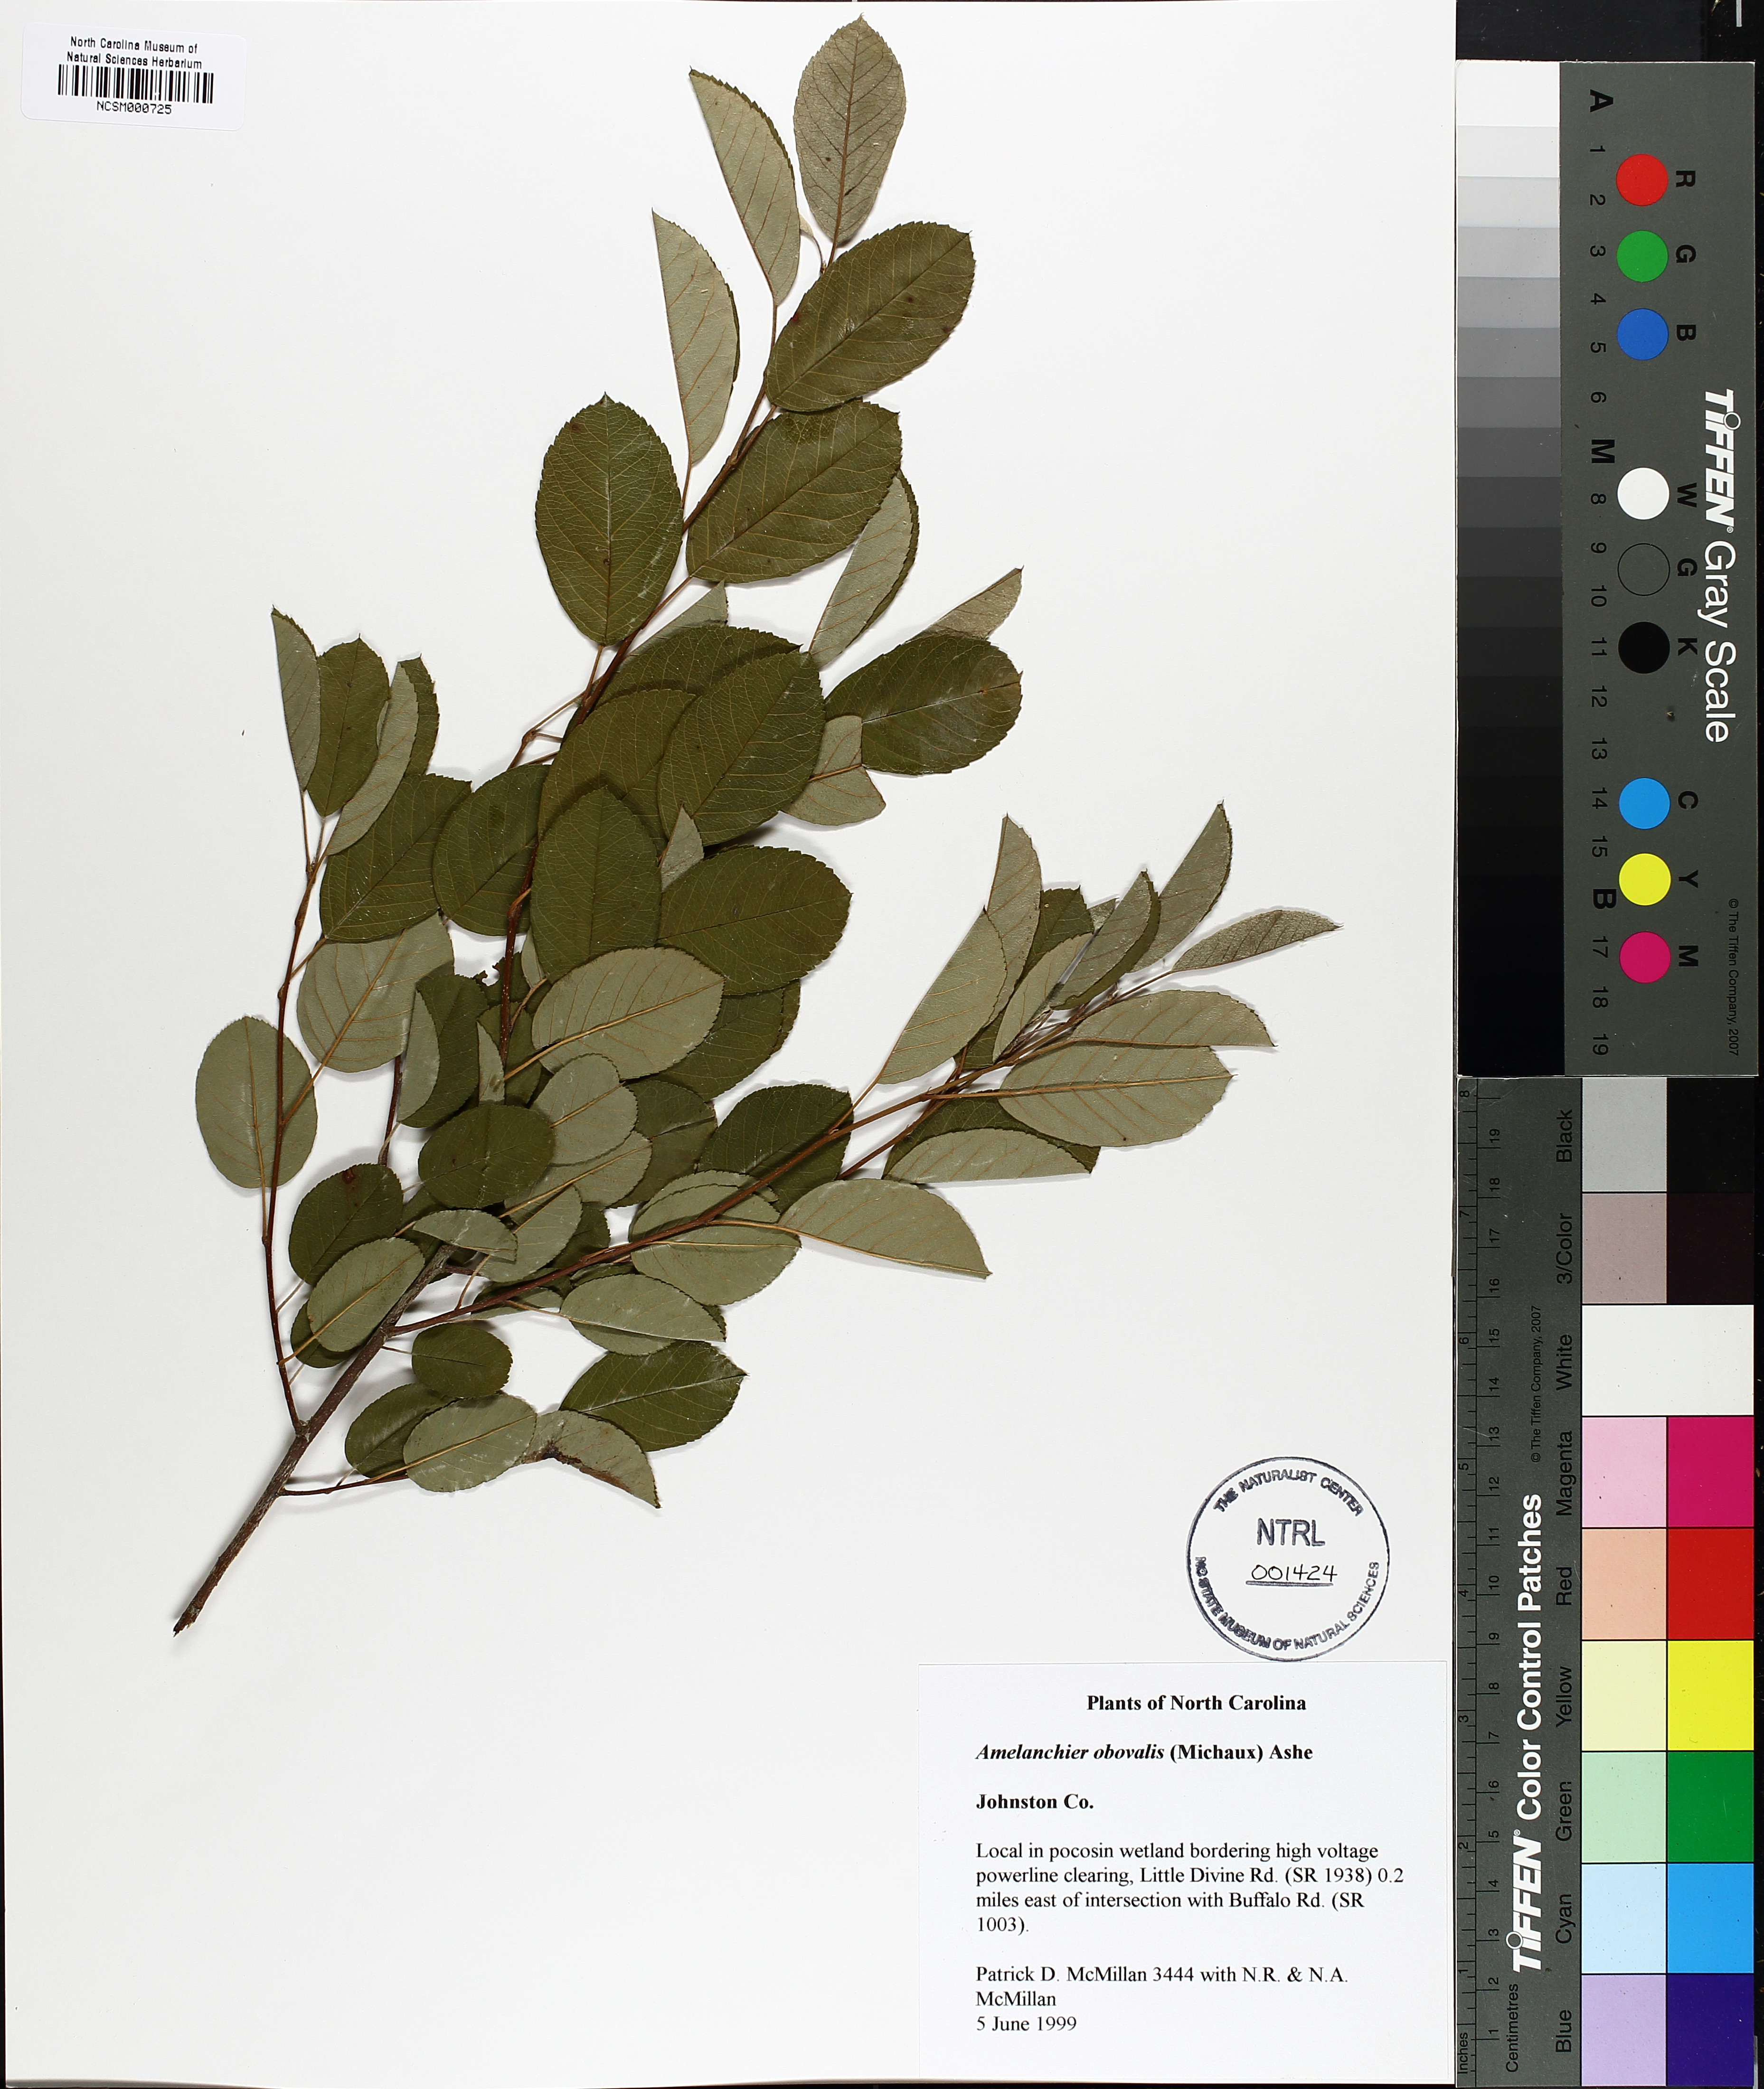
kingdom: Plantae
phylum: Tracheophyta
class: Magnoliopsida
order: Rosales
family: Rosaceae
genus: Amelanchier
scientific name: Amelanchier obovalis
